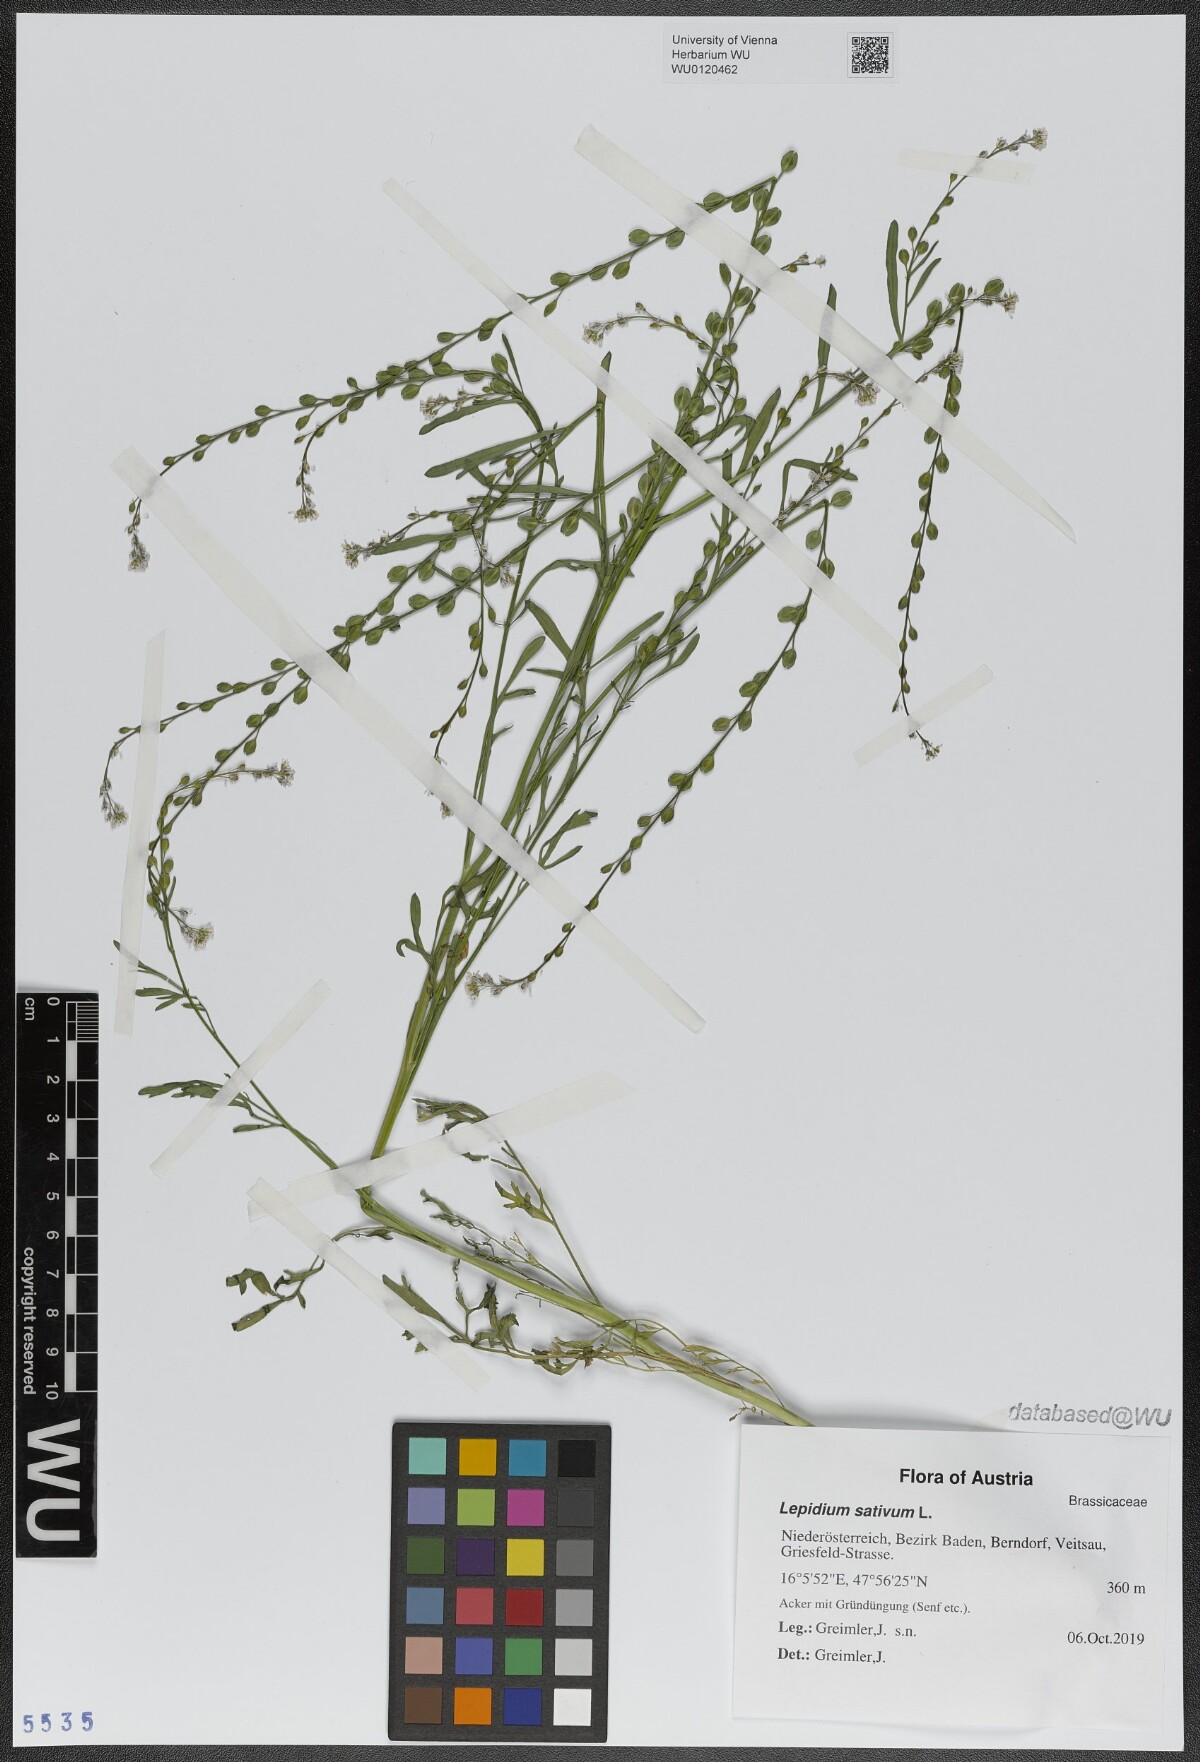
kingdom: Plantae
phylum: Tracheophyta
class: Magnoliopsida
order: Brassicales
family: Brassicaceae
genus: Lepidium
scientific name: Lepidium sativum
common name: Garden cress
